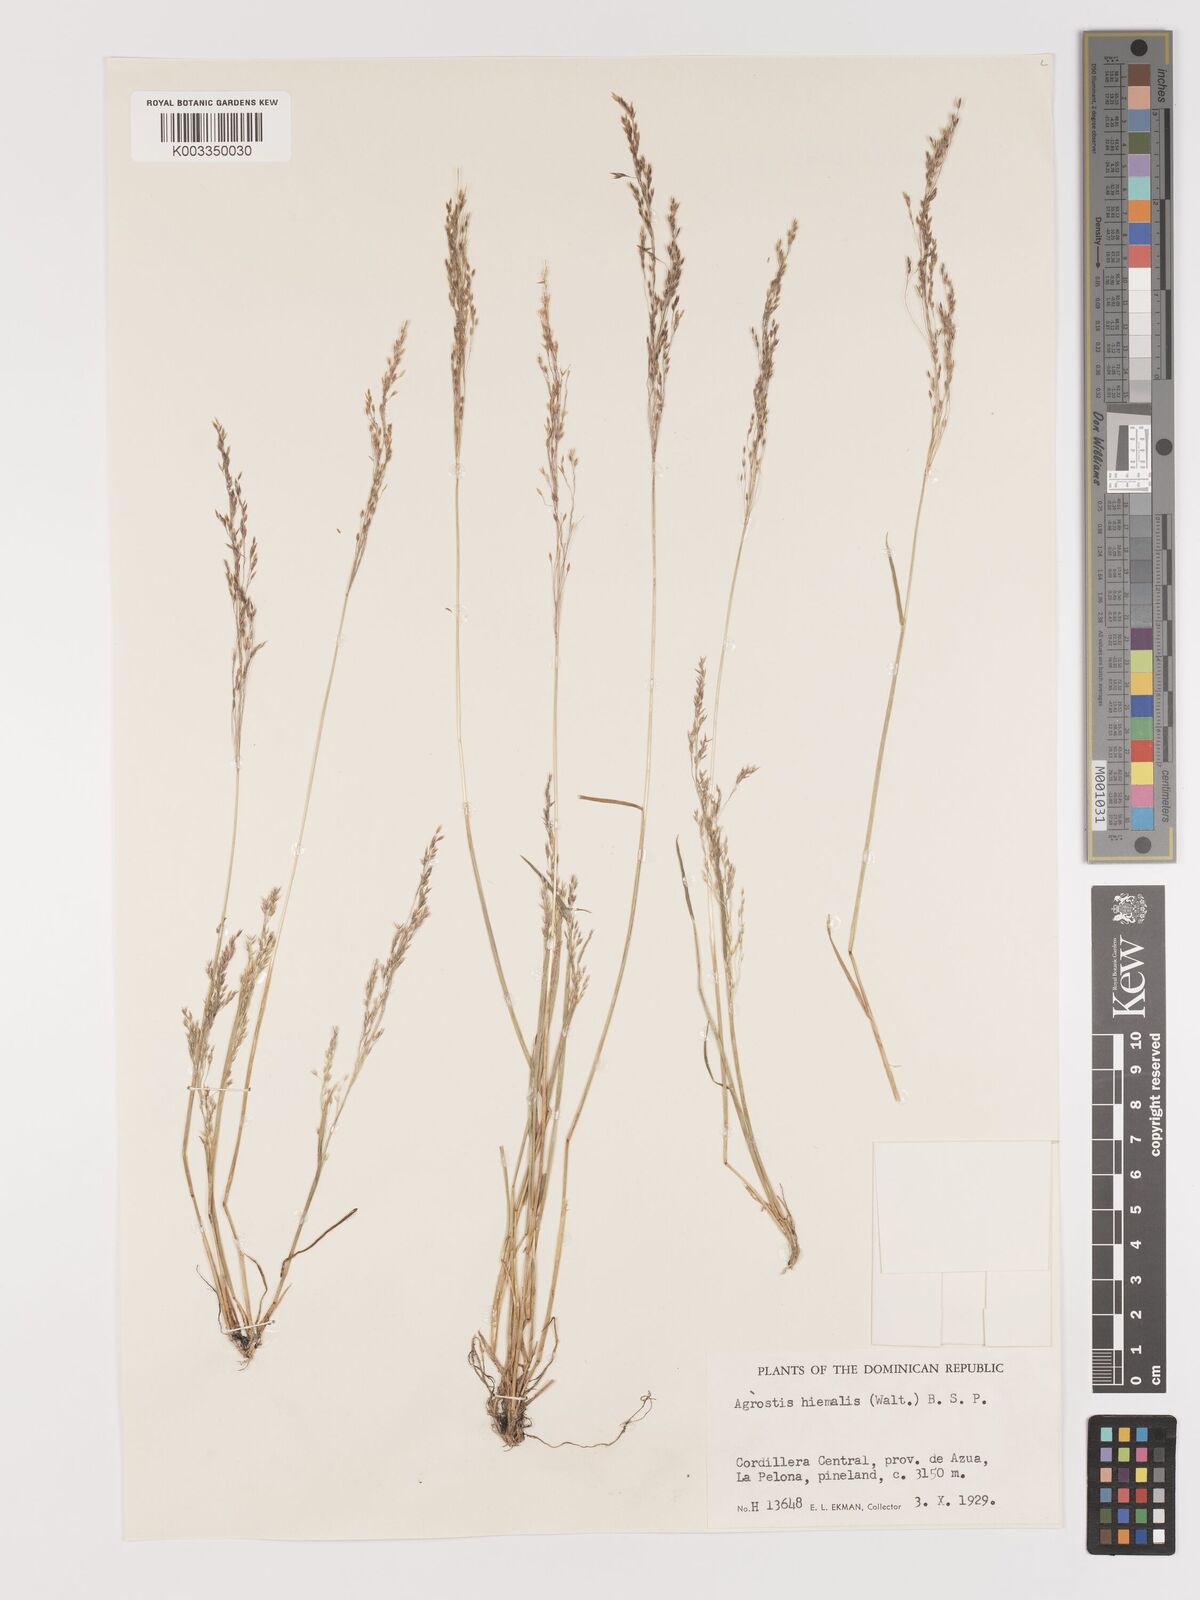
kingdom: Plantae
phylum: Tracheophyta
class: Liliopsida
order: Poales
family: Poaceae
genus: Agrostis
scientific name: Agrostis hyemalis
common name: Small bent
